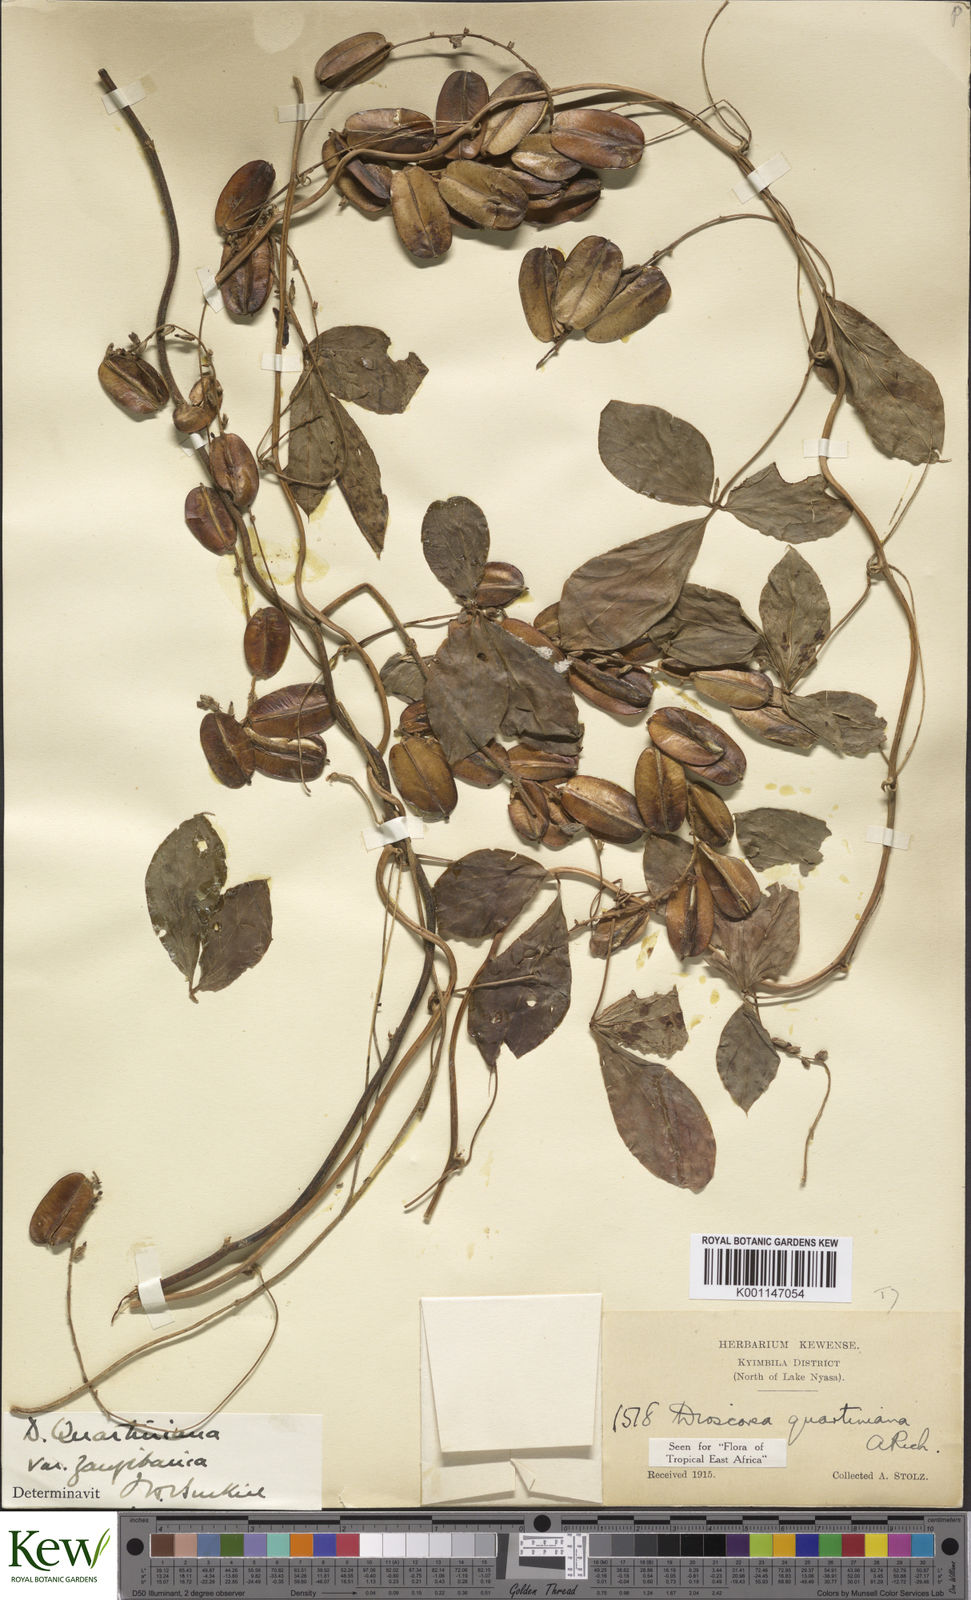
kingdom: Plantae
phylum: Tracheophyta
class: Liliopsida
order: Dioscoreales
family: Dioscoreaceae
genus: Dioscorea
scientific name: Dioscorea quartiniana
